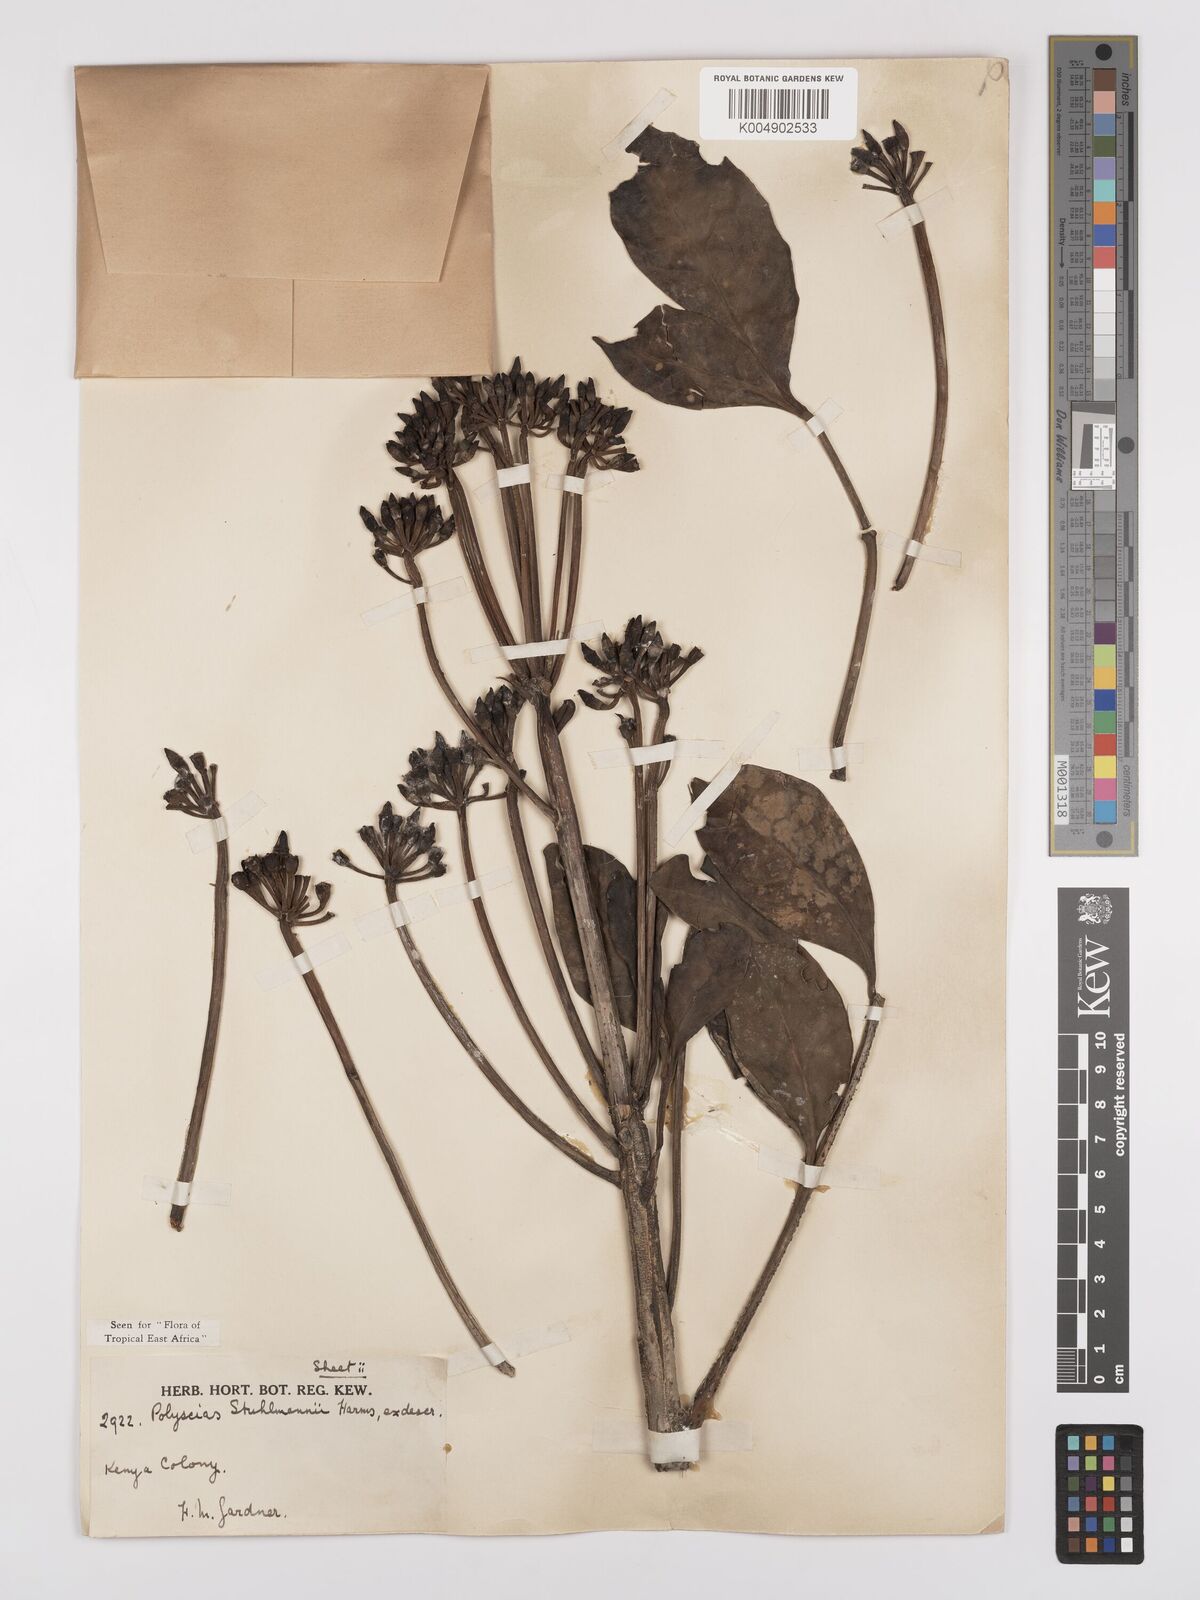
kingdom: Plantae
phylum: Tracheophyta
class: Magnoliopsida
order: Apiales
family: Araliaceae
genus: Polyscias
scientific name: Polyscias stuhlmannii
